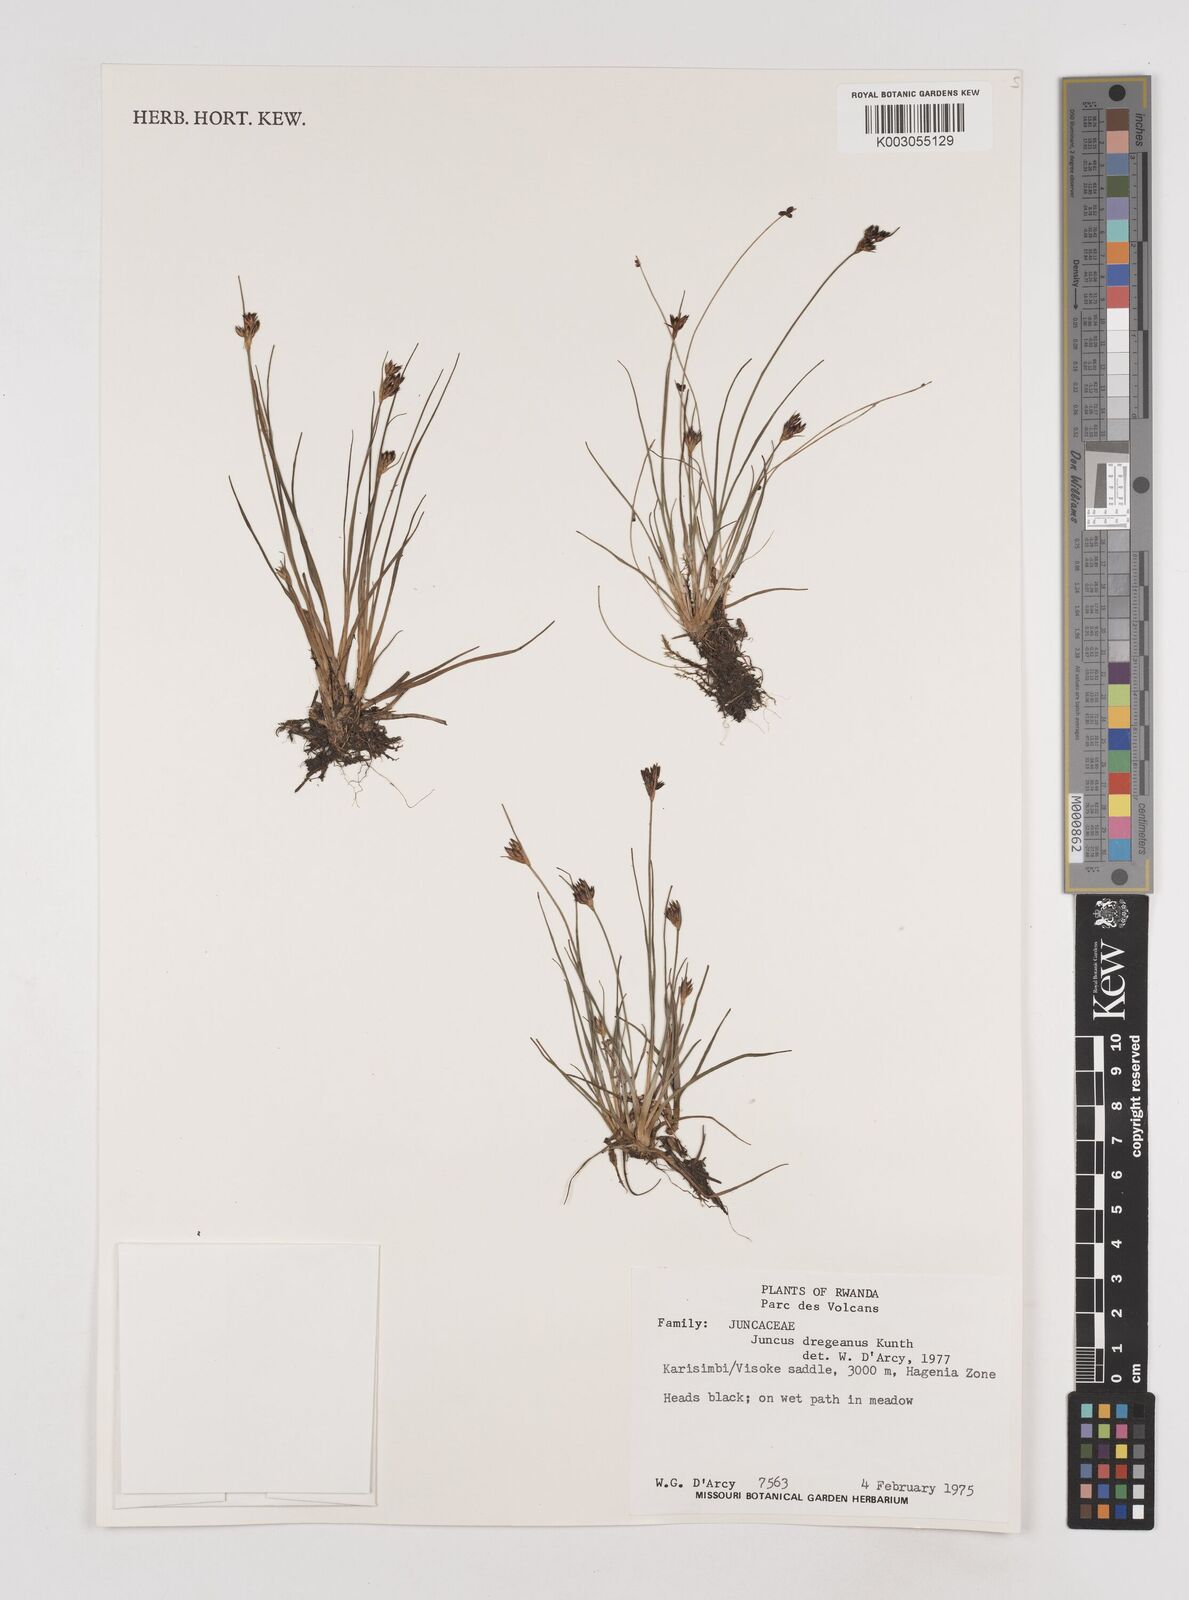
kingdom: Plantae
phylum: Tracheophyta
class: Liliopsida
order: Poales
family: Juncaceae
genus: Juncus
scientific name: Juncus dregeanus
